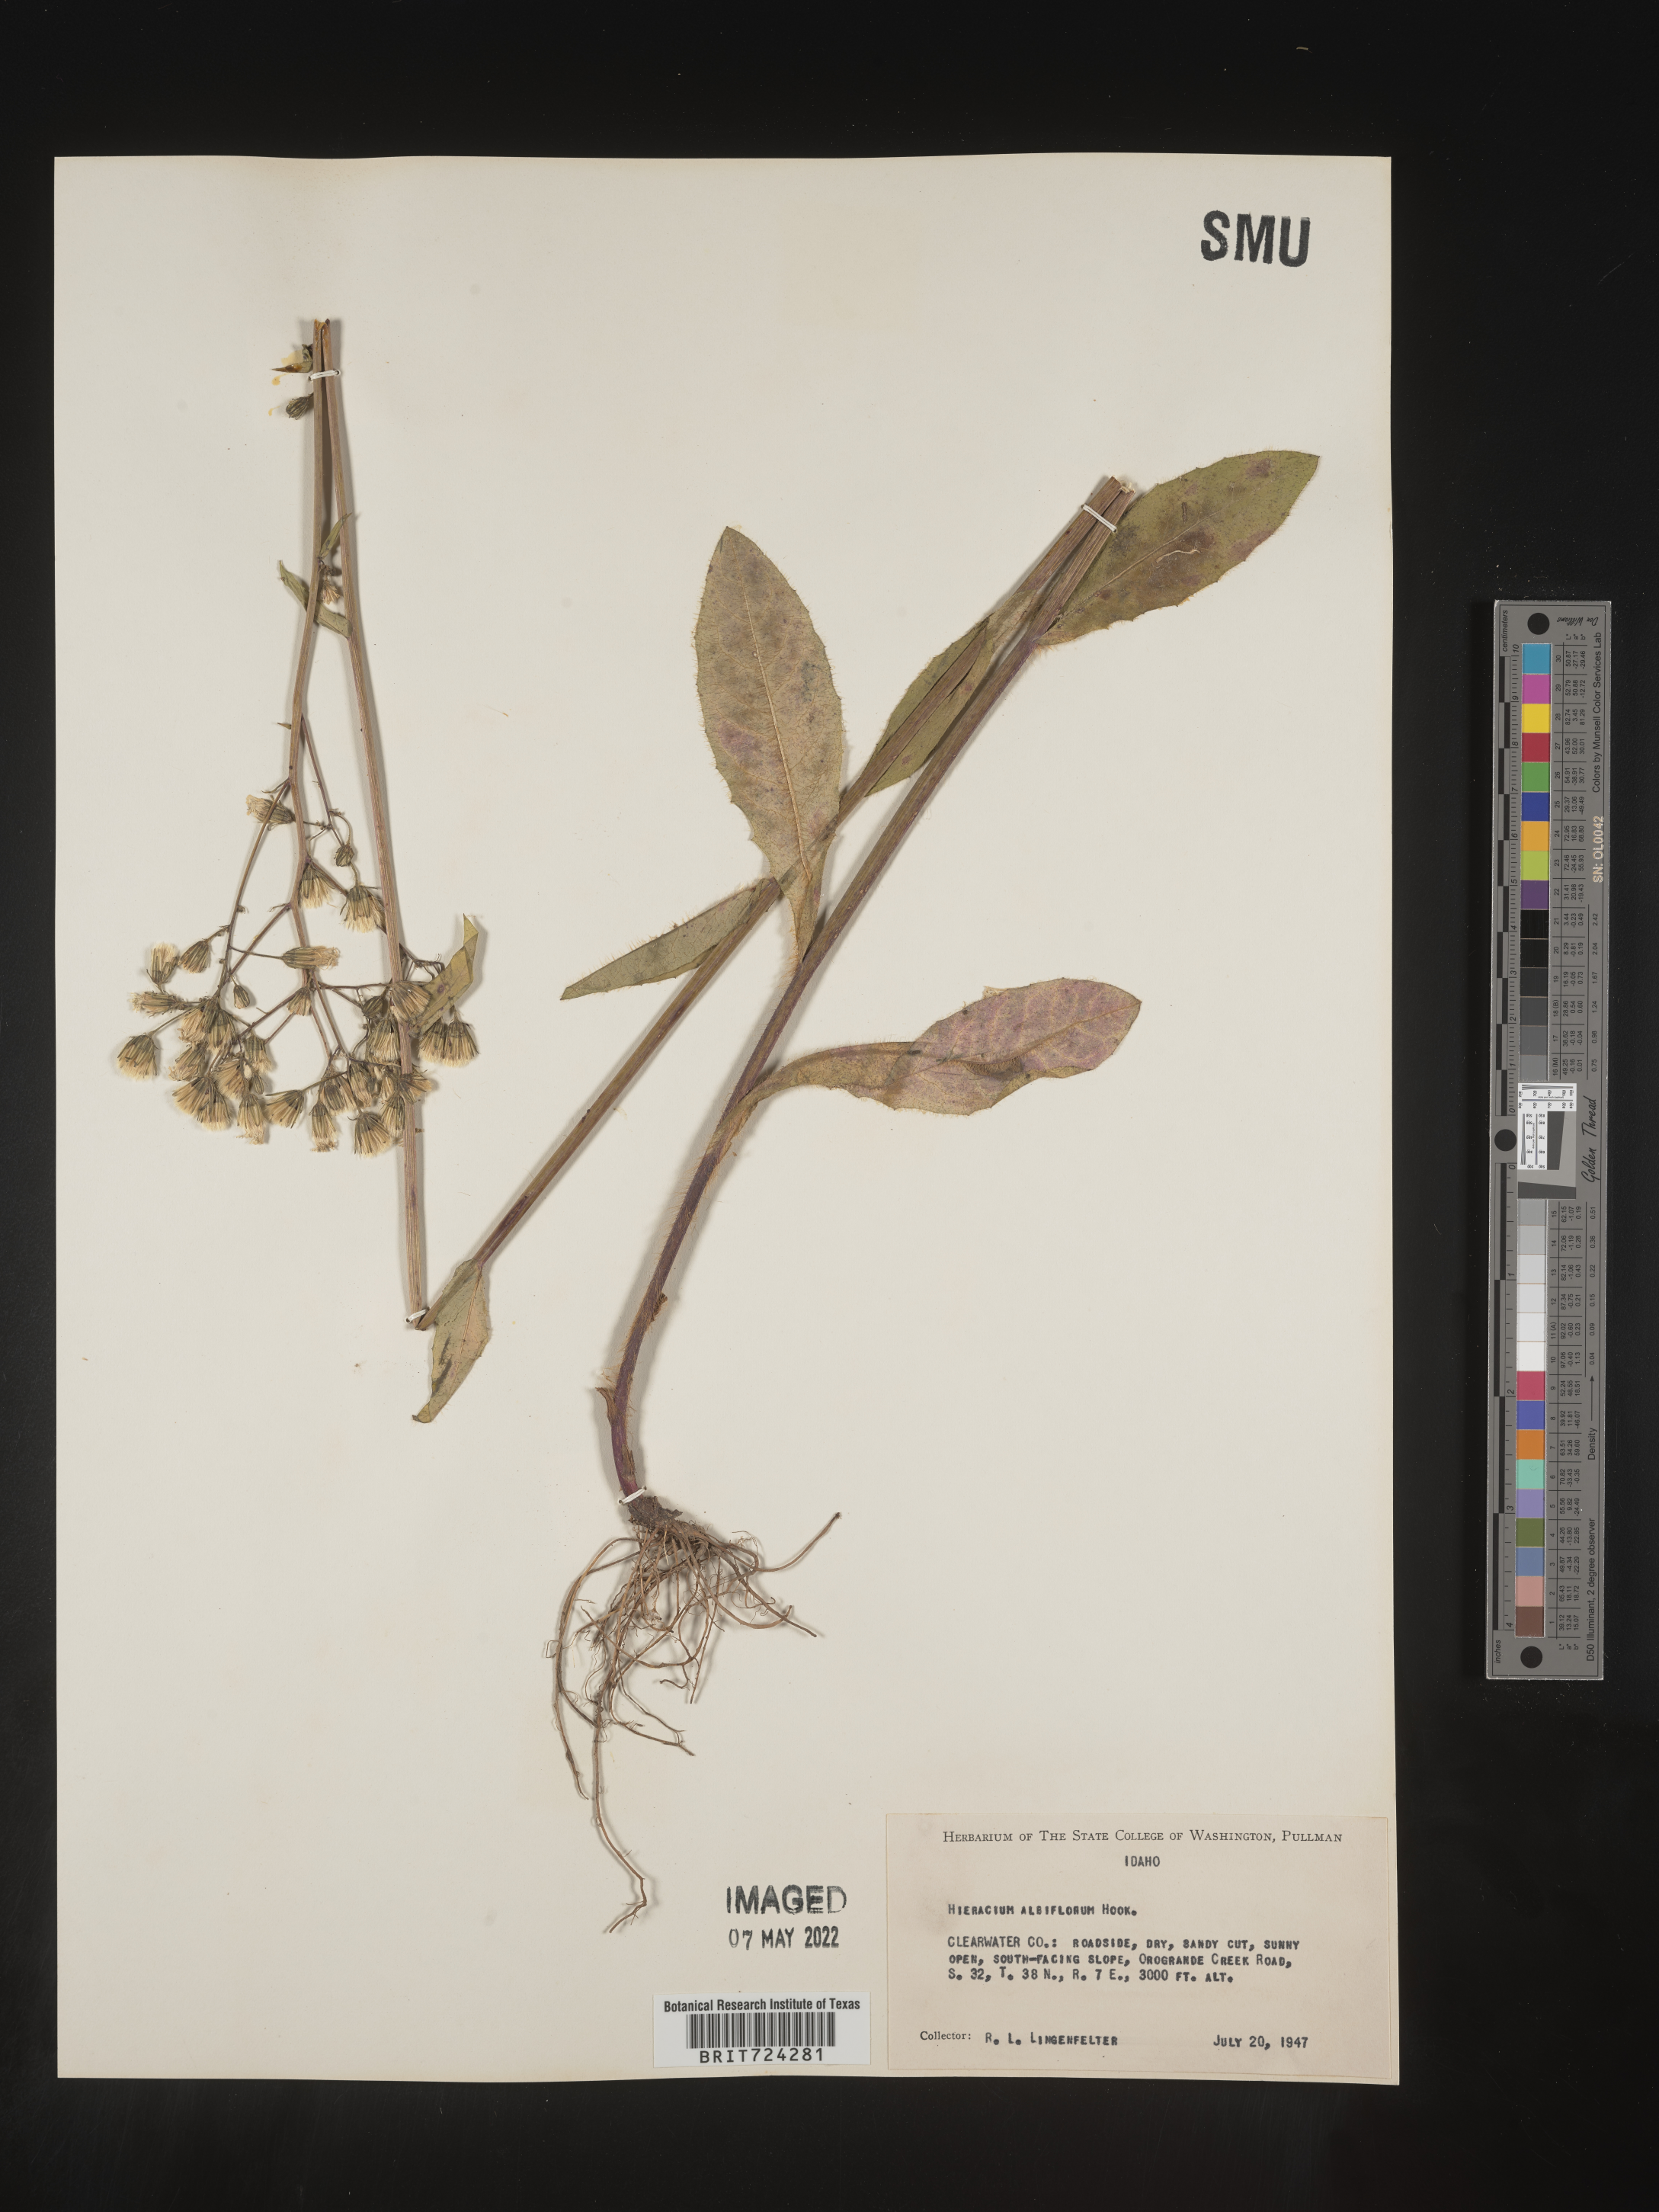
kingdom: Plantae
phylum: Tracheophyta
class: Magnoliopsida
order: Asterales
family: Asteraceae
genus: Hieracium
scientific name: Hieracium albiflorum
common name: White hawkweed
